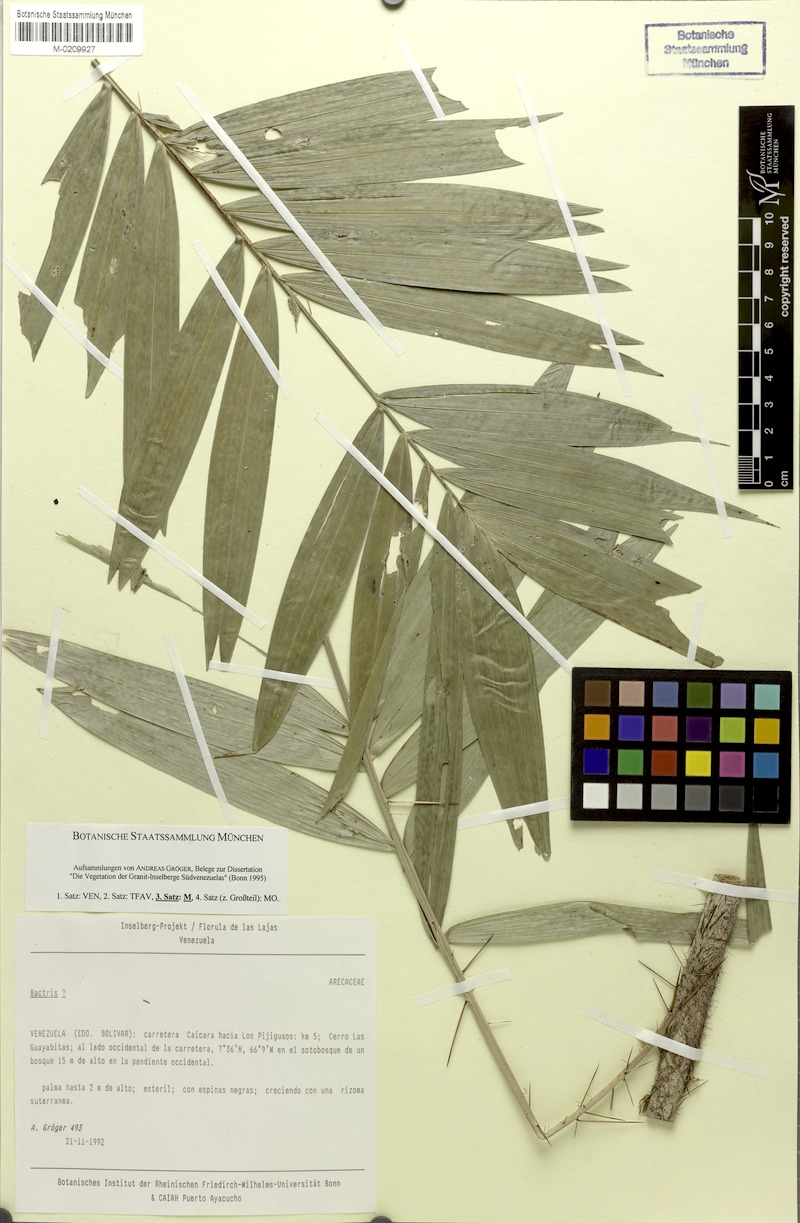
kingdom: Plantae
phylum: Tracheophyta
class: Liliopsida
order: Arecales
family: Arecaceae
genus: Bactris
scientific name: Bactris bidentula
